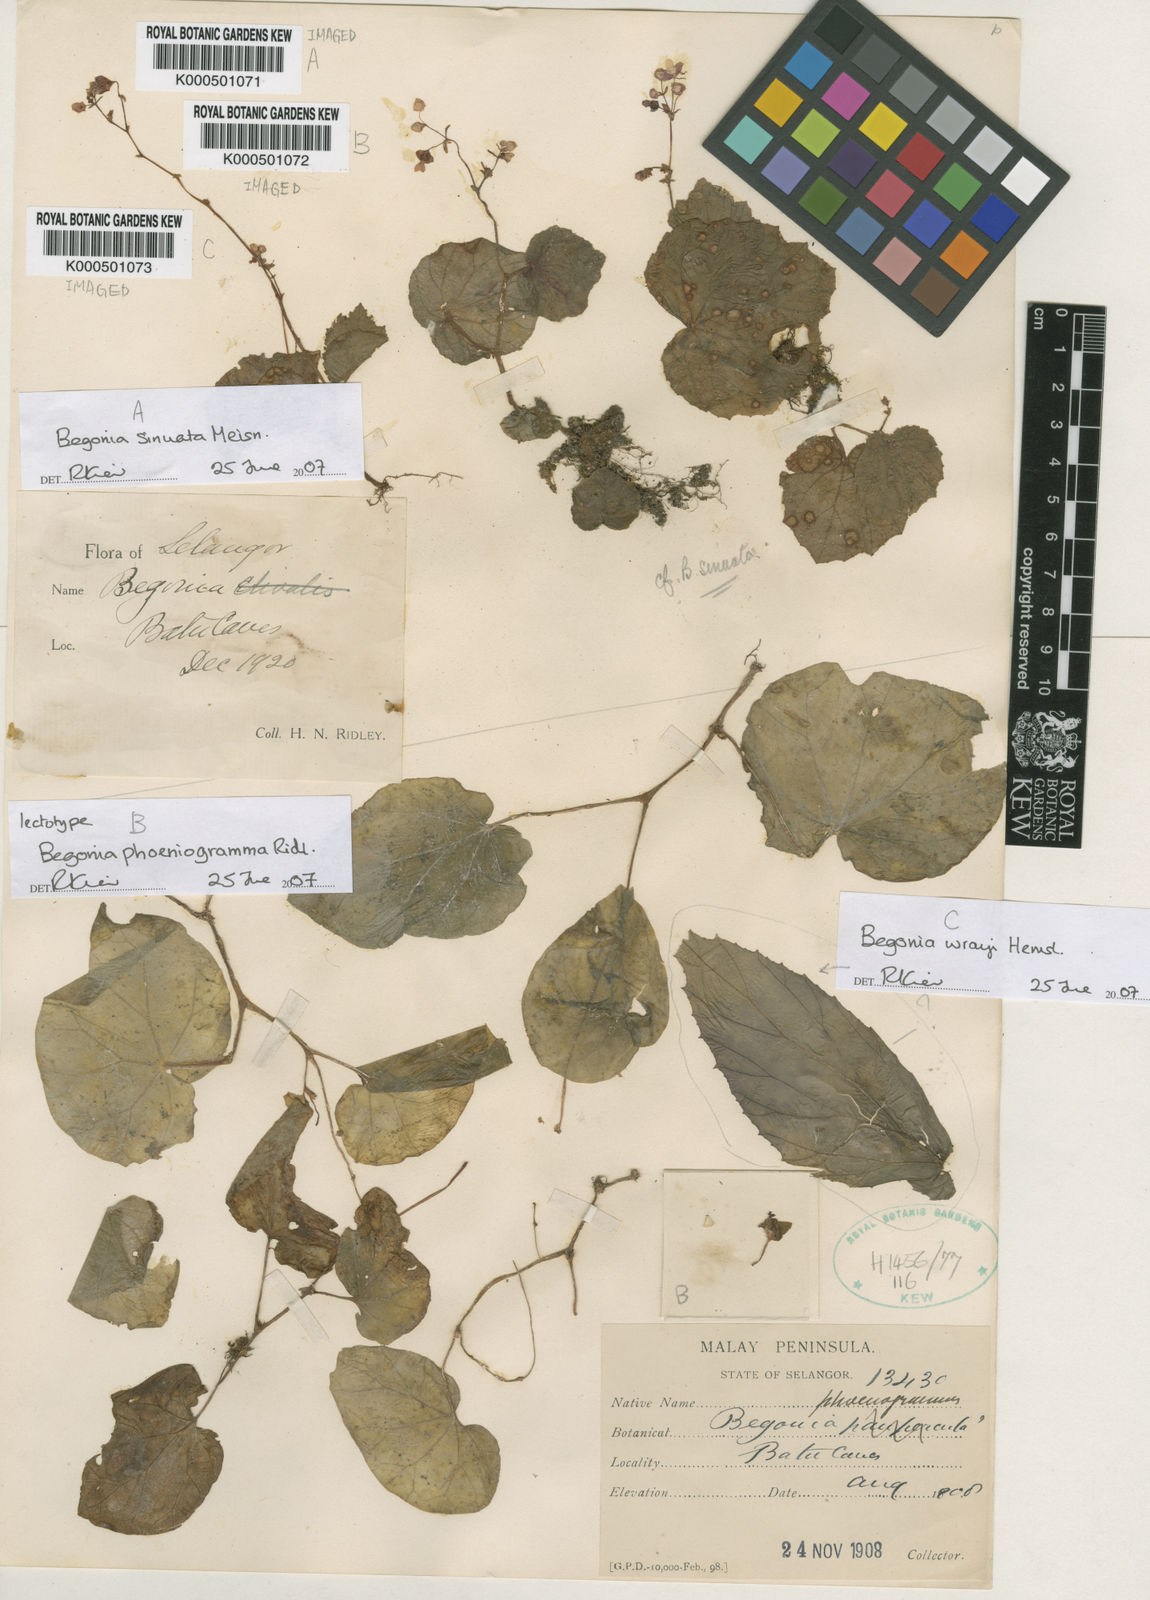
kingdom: Plantae
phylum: Tracheophyta
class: Magnoliopsida
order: Cucurbitales
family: Begoniaceae
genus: Begonia
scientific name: Begonia phoeniogramma
